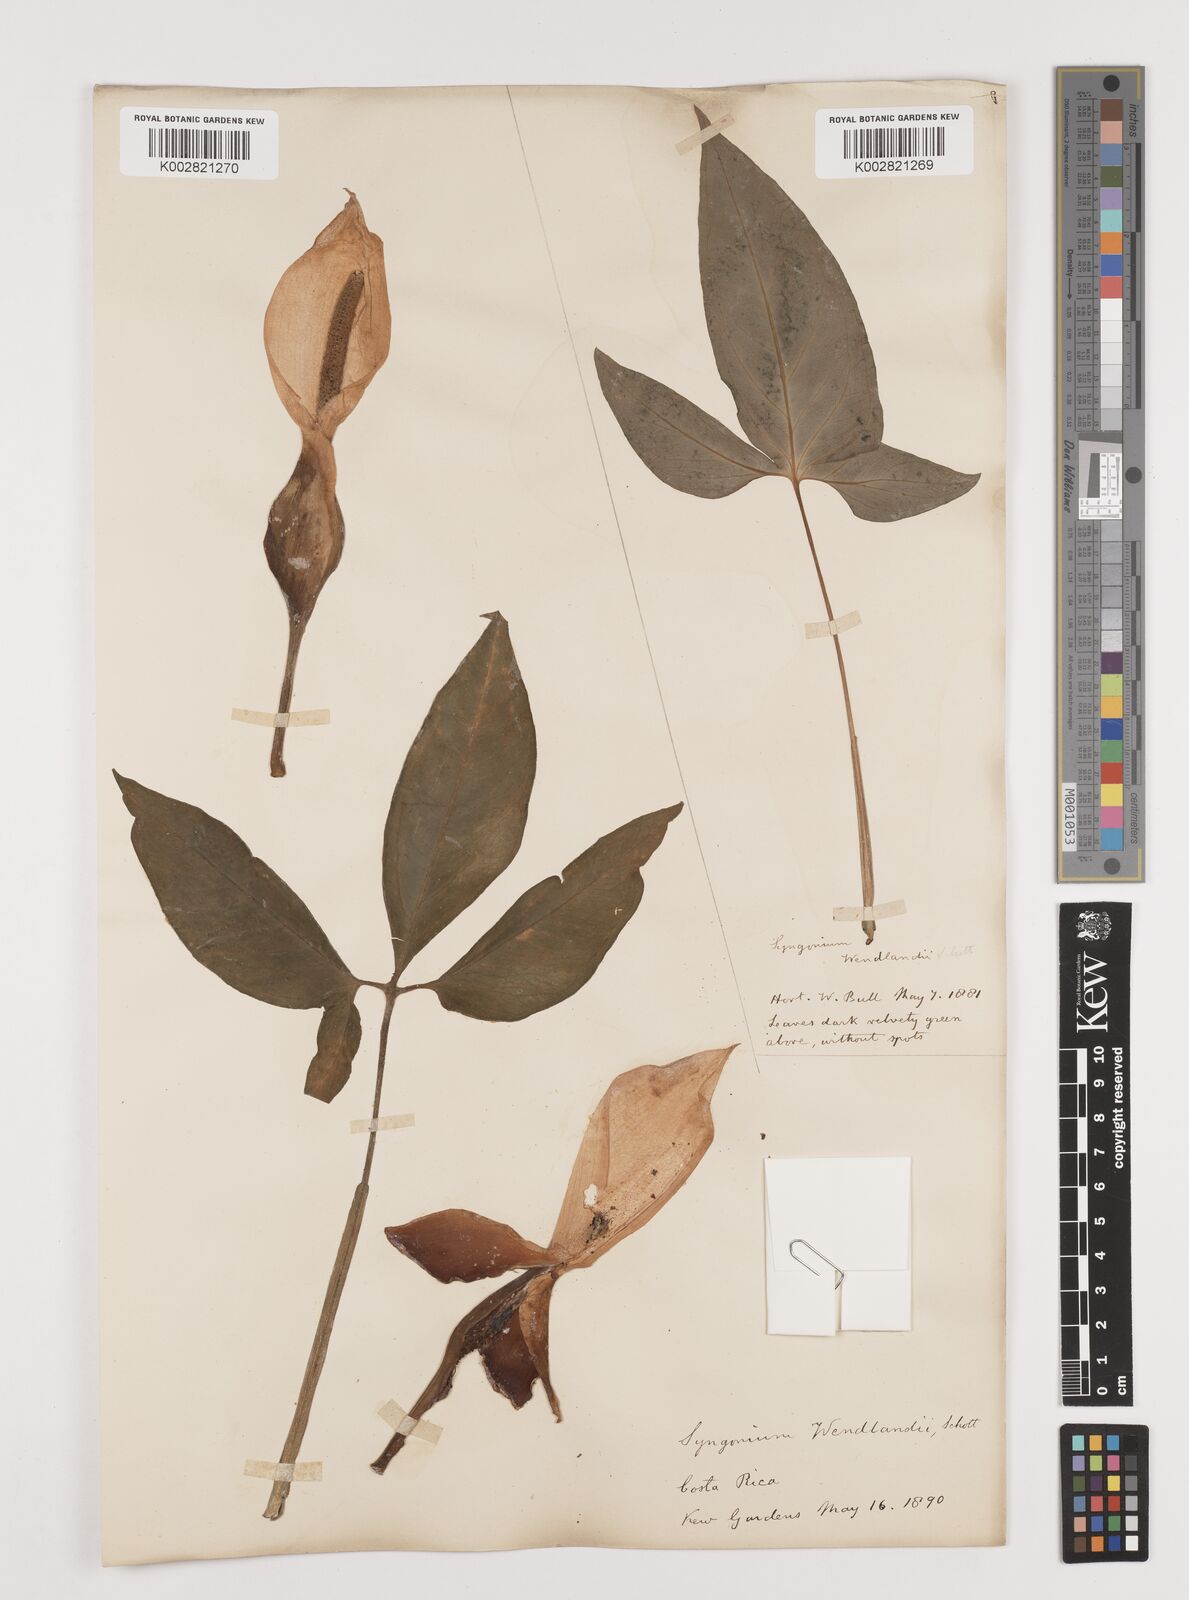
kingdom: Plantae
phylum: Tracheophyta
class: Liliopsida
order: Alismatales
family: Araceae
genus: Syngonium
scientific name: Syngonium wendlandii
